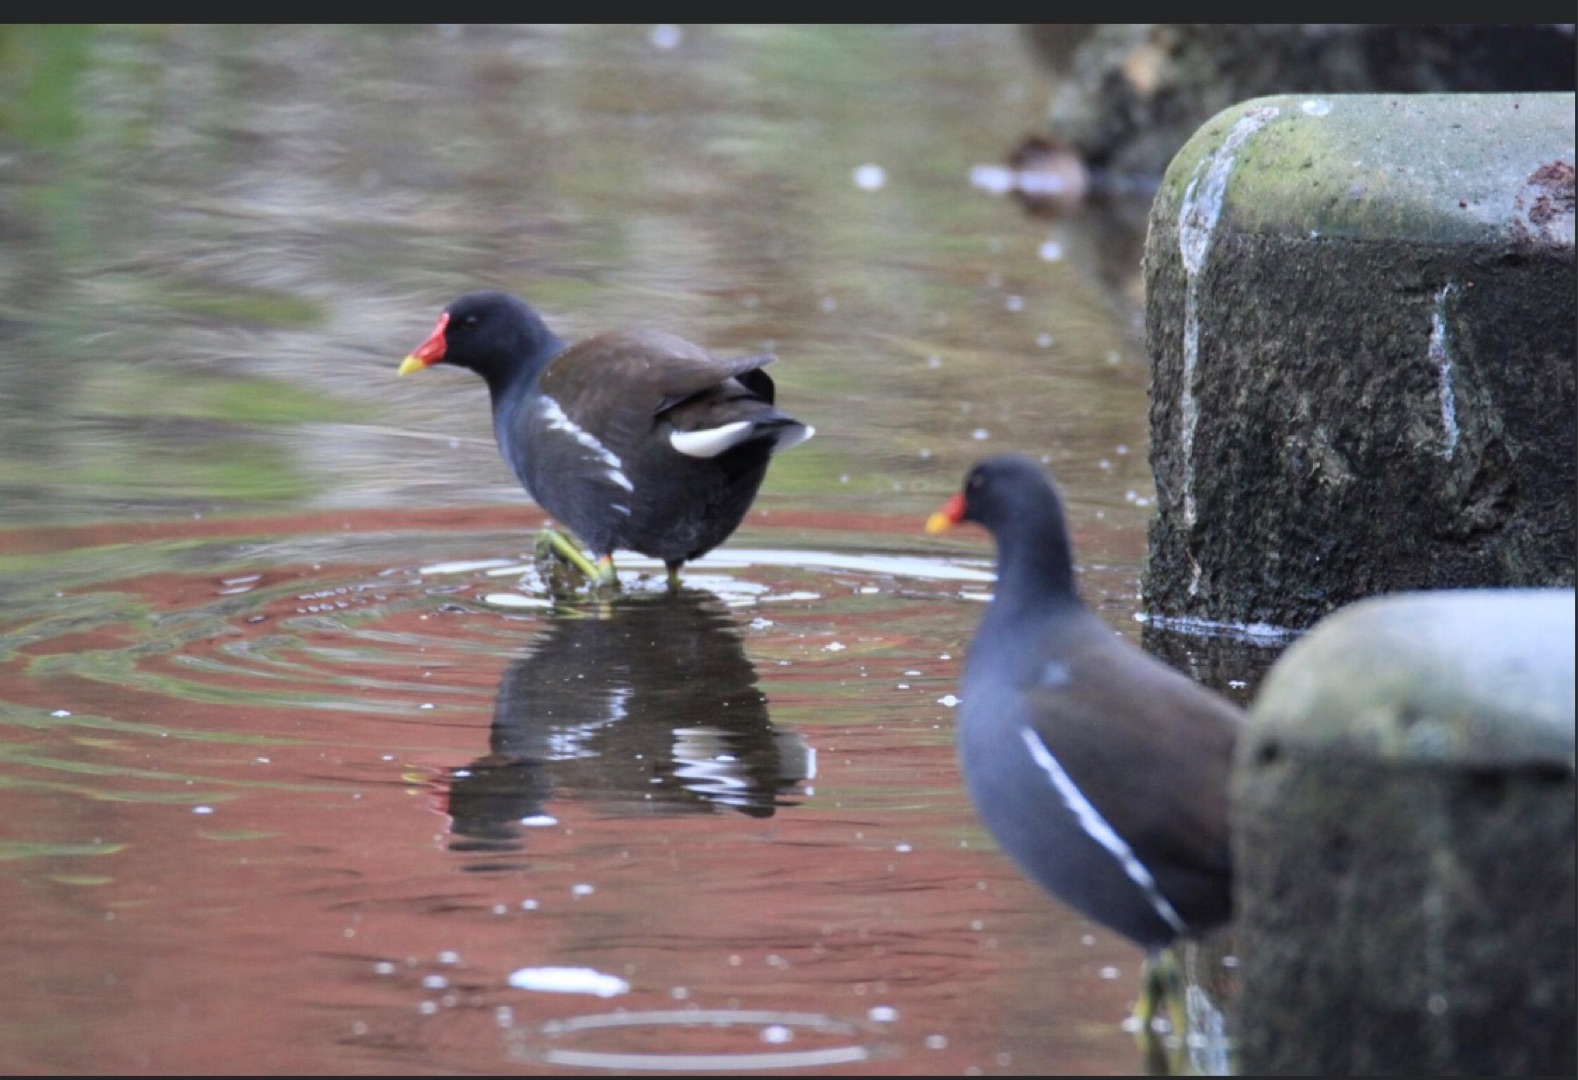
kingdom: Animalia
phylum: Chordata
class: Aves
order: Gruiformes
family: Rallidae
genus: Gallinula
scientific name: Gallinula chloropus
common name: Grønbenet rørhøne
